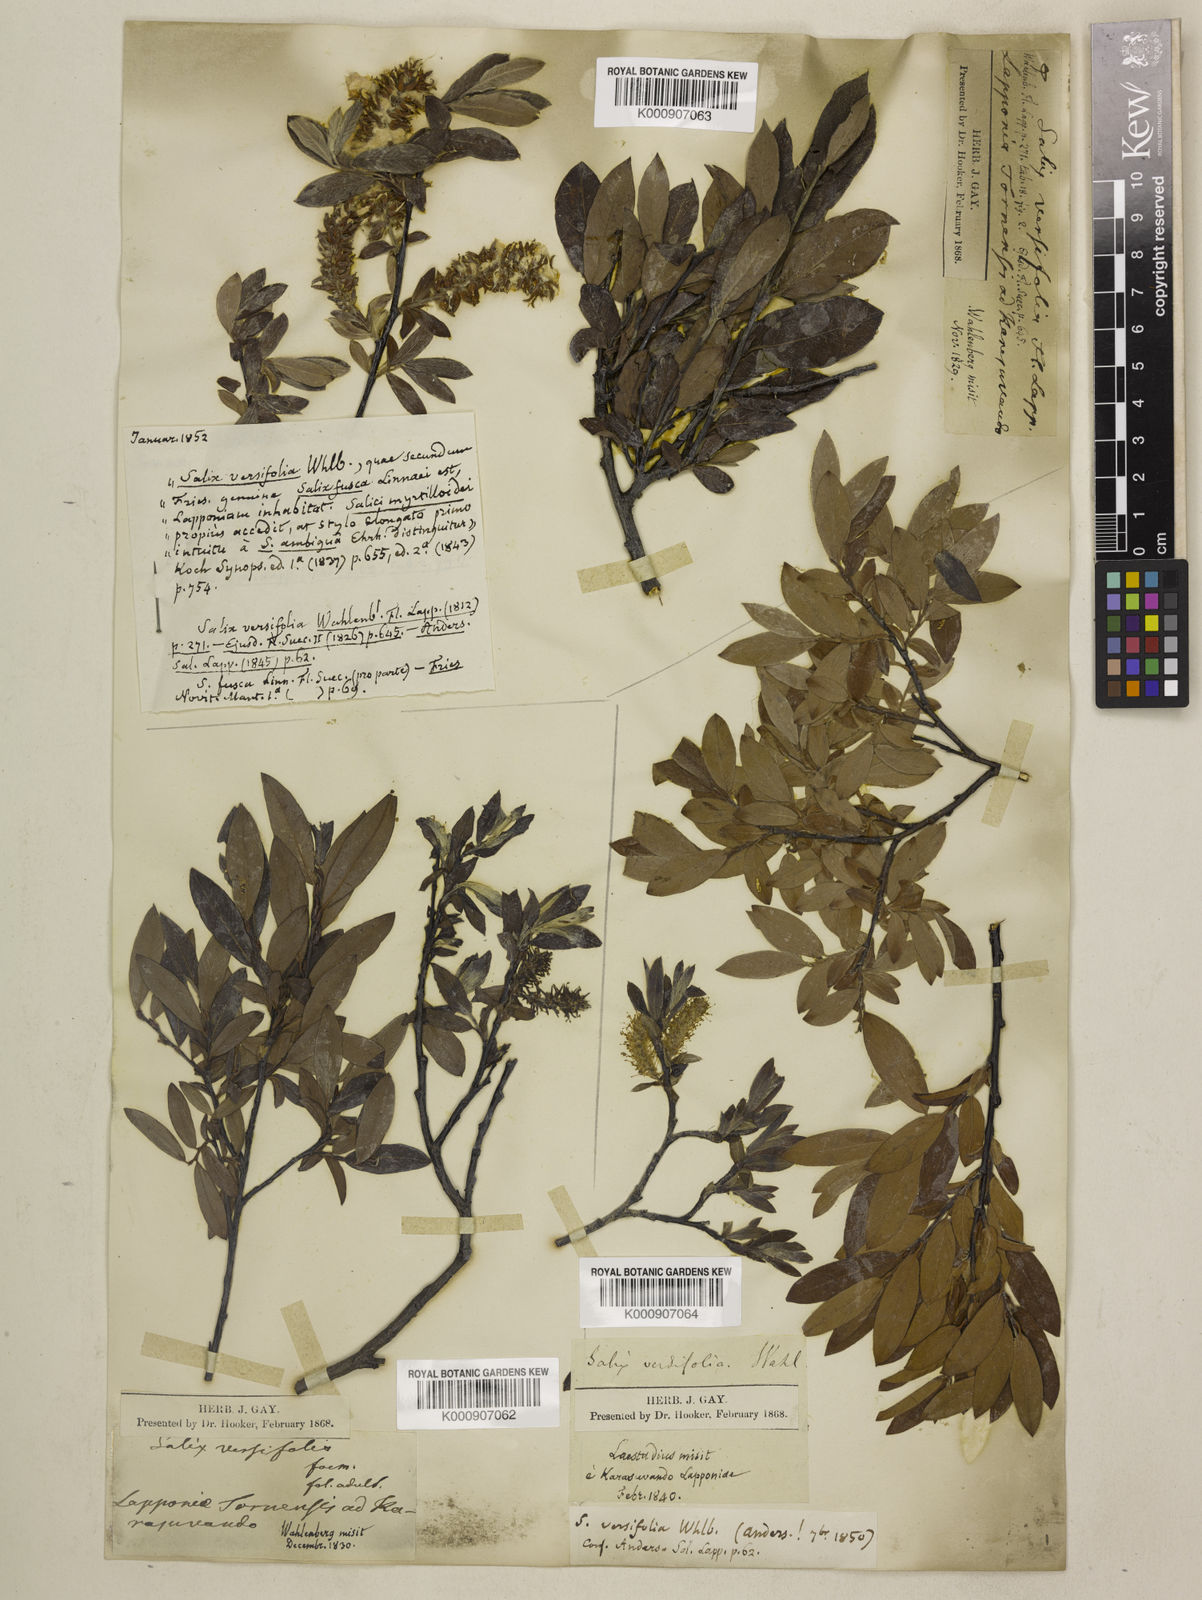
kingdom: Plantae
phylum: Tracheophyta
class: Magnoliopsida
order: Malpighiales
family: Salicaceae
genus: Salix
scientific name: Salix lapponum
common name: Downy willow
